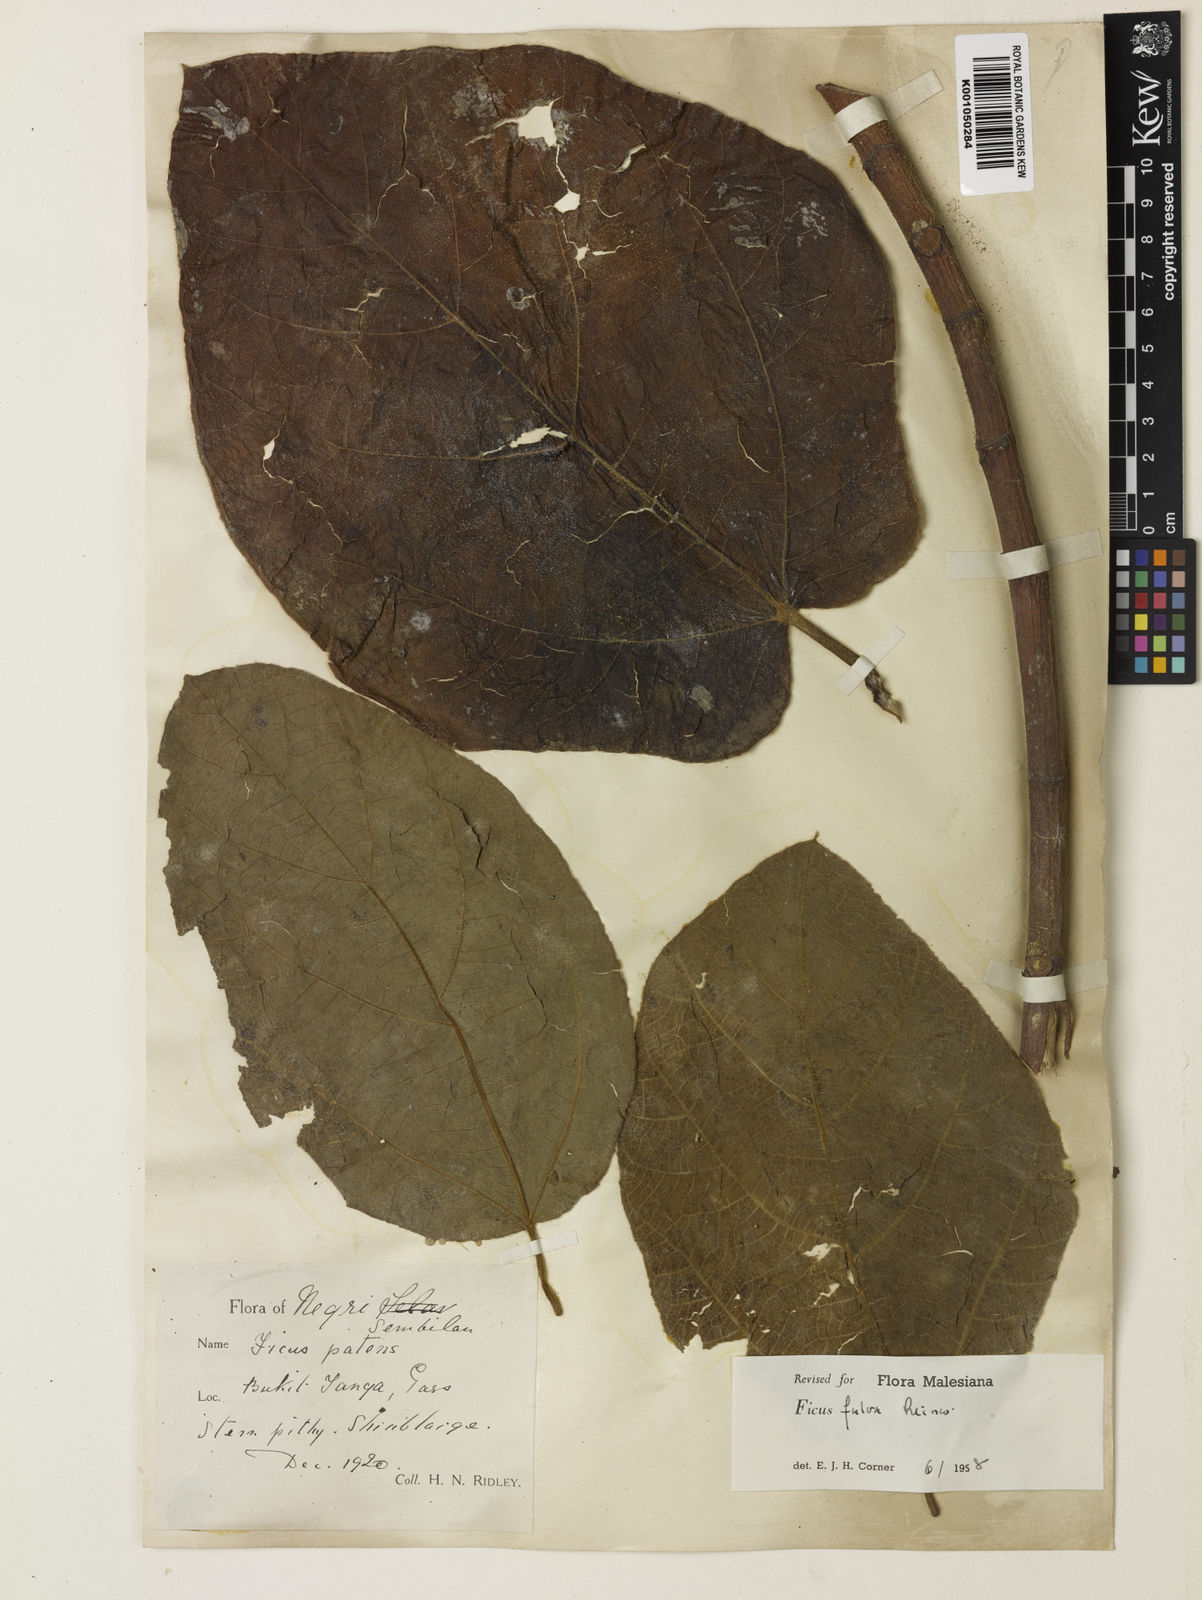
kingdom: Plantae
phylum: Tracheophyta
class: Magnoliopsida
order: Rosales
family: Moraceae
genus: Ficus
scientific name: Ficus fulva
